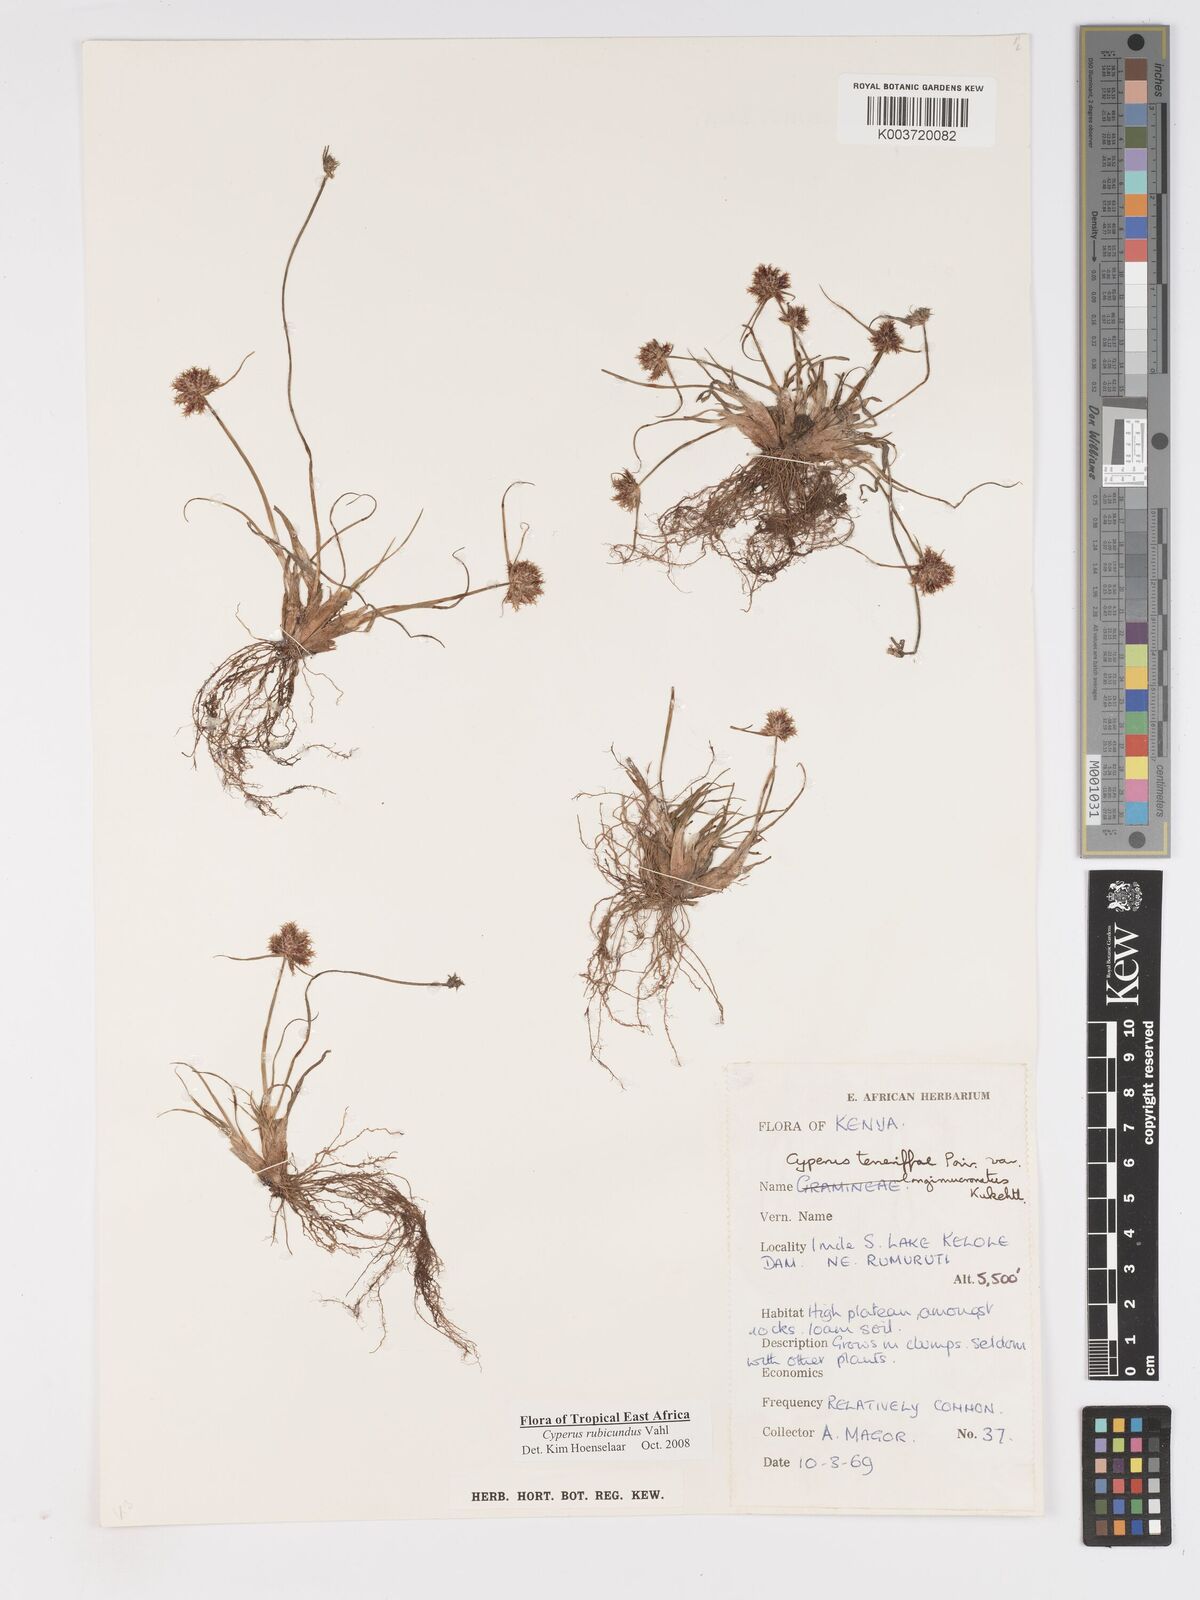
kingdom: Plantae
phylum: Tracheophyta
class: Liliopsida
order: Poales
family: Cyperaceae
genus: Cyperus
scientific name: Cyperus rubicundus
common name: Coco-grass
